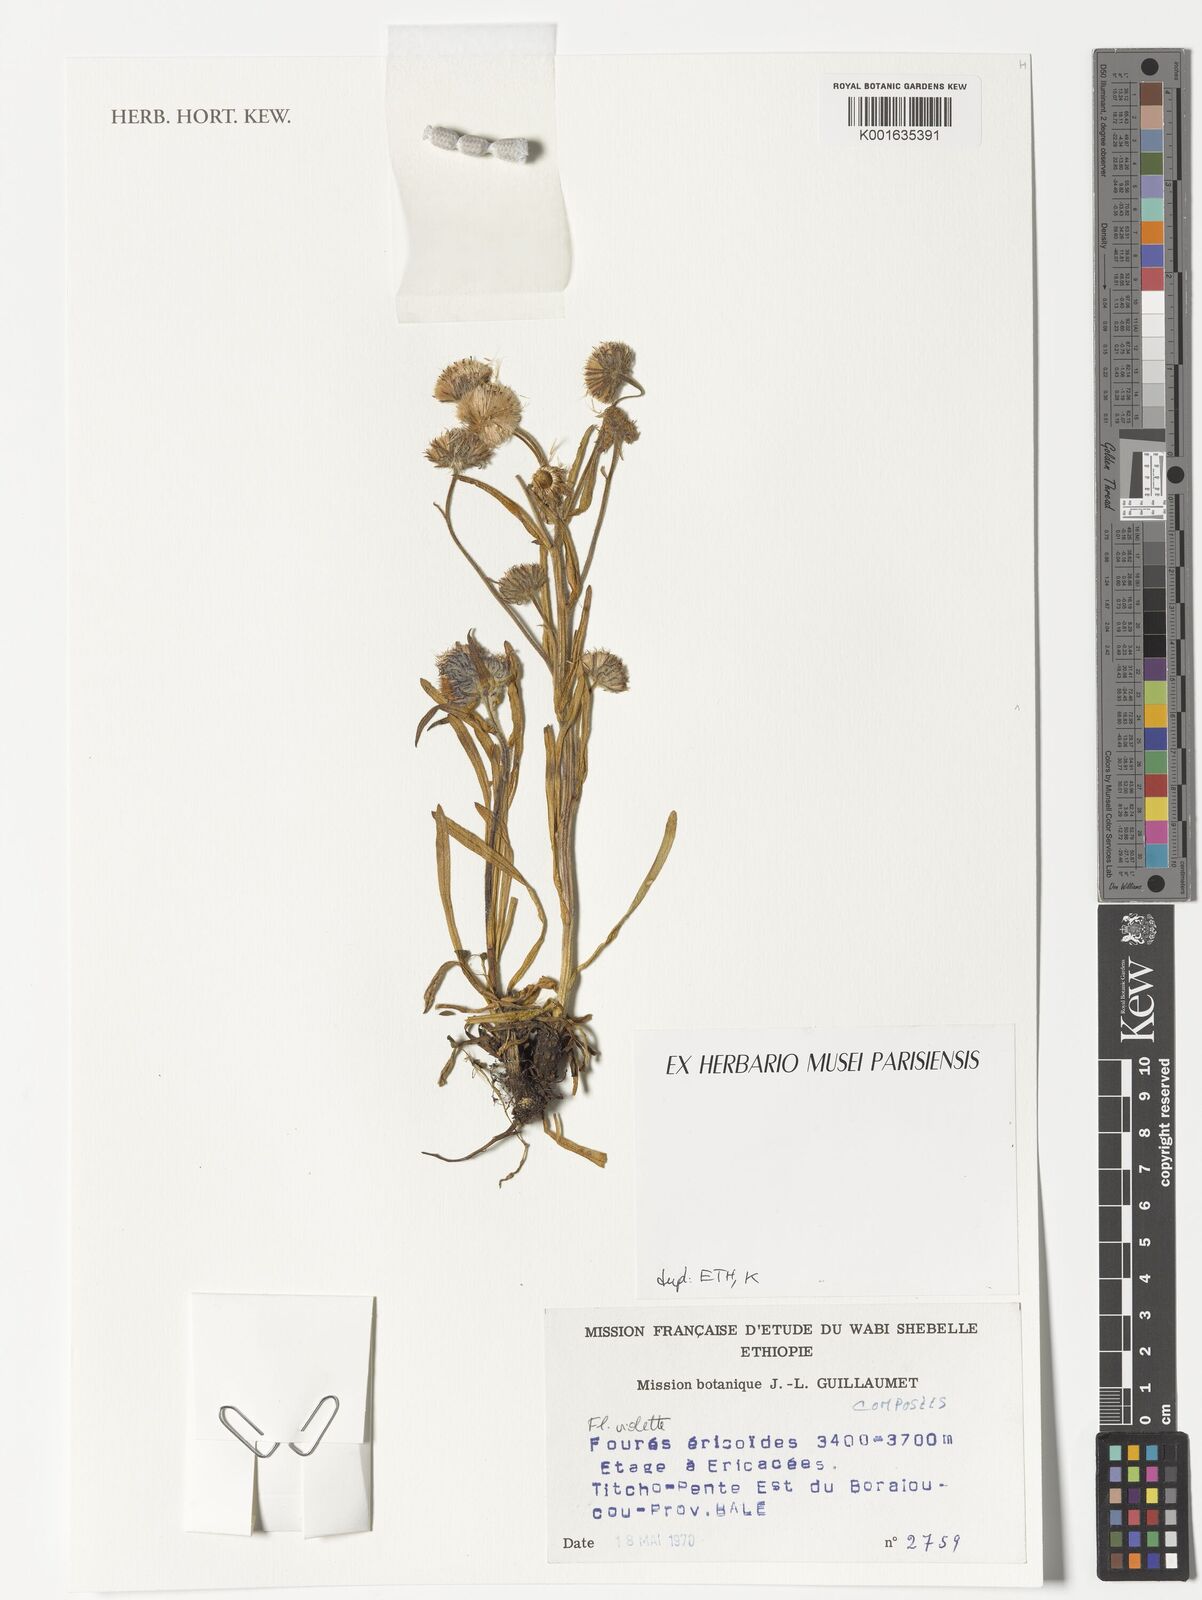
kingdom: Plantae
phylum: Tracheophyta
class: Magnoliopsida
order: Asterales
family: Asteraceae
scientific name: Asteraceae
